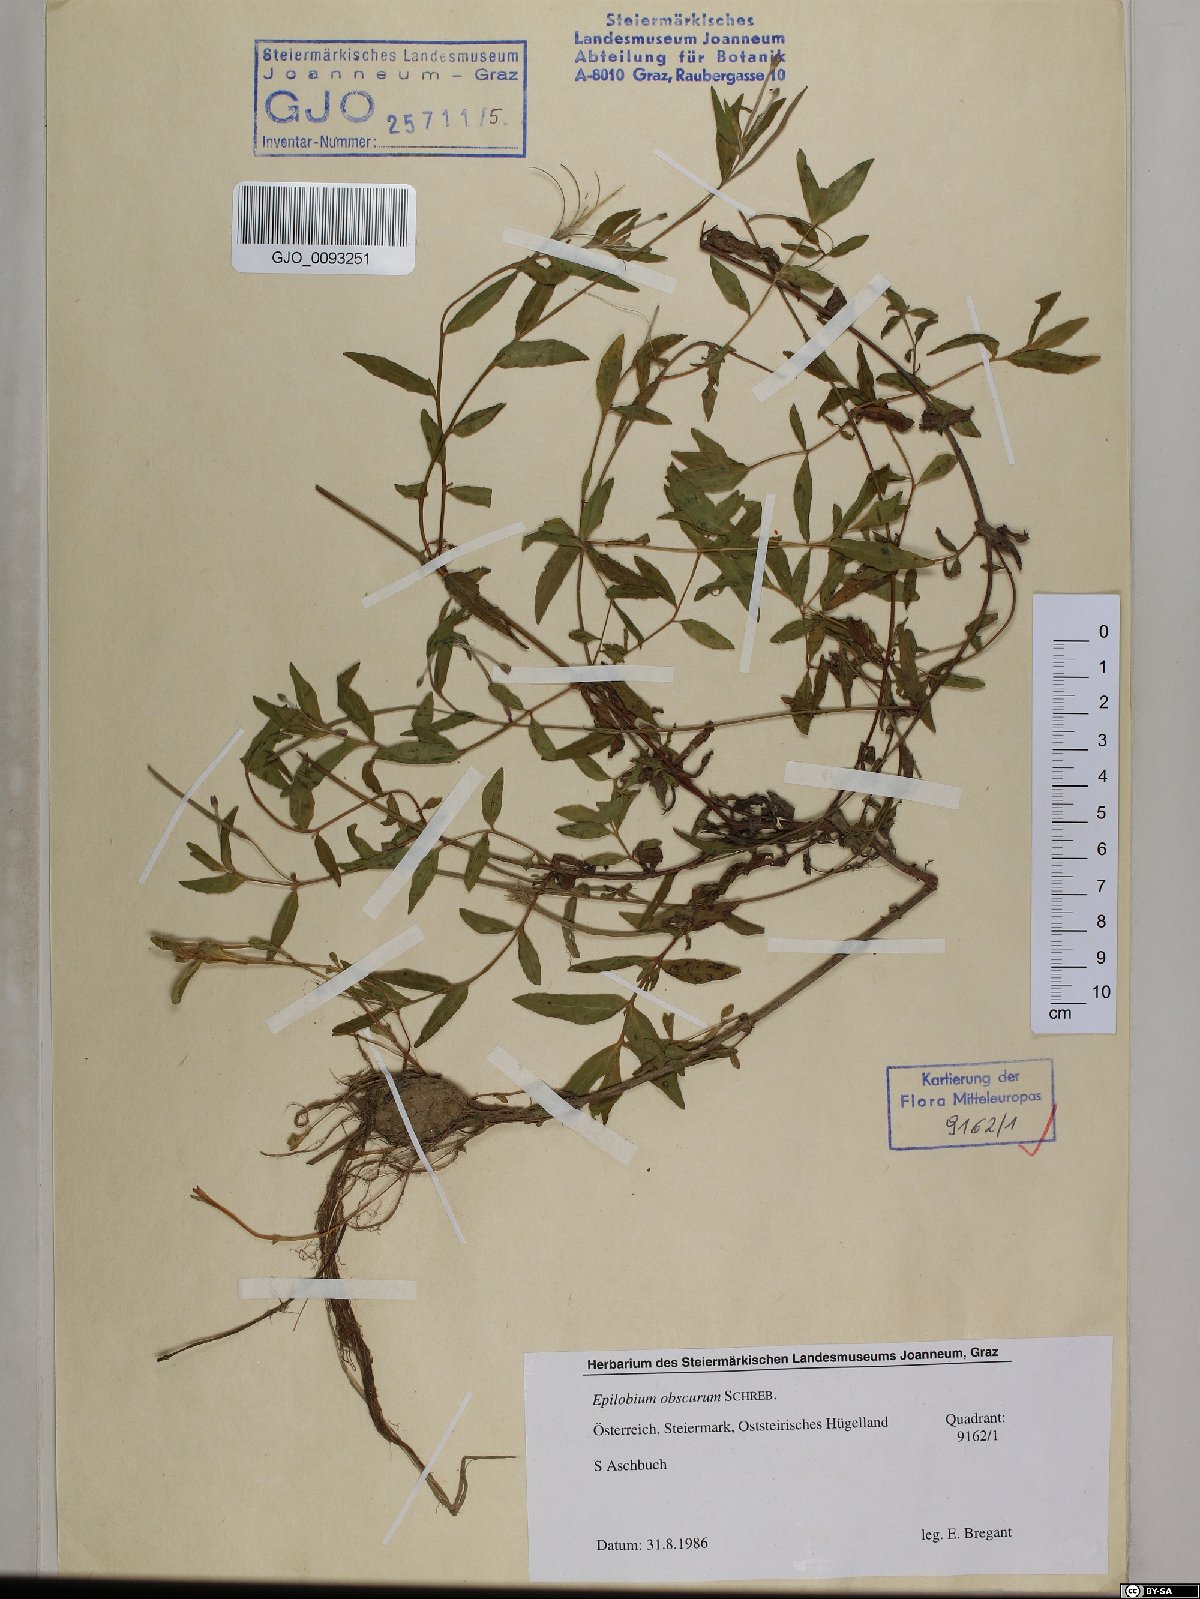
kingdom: Plantae
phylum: Tracheophyta
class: Magnoliopsida
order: Myrtales
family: Onagraceae
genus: Epilobium
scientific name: Epilobium obscurum
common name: Short-fruited willowherb
